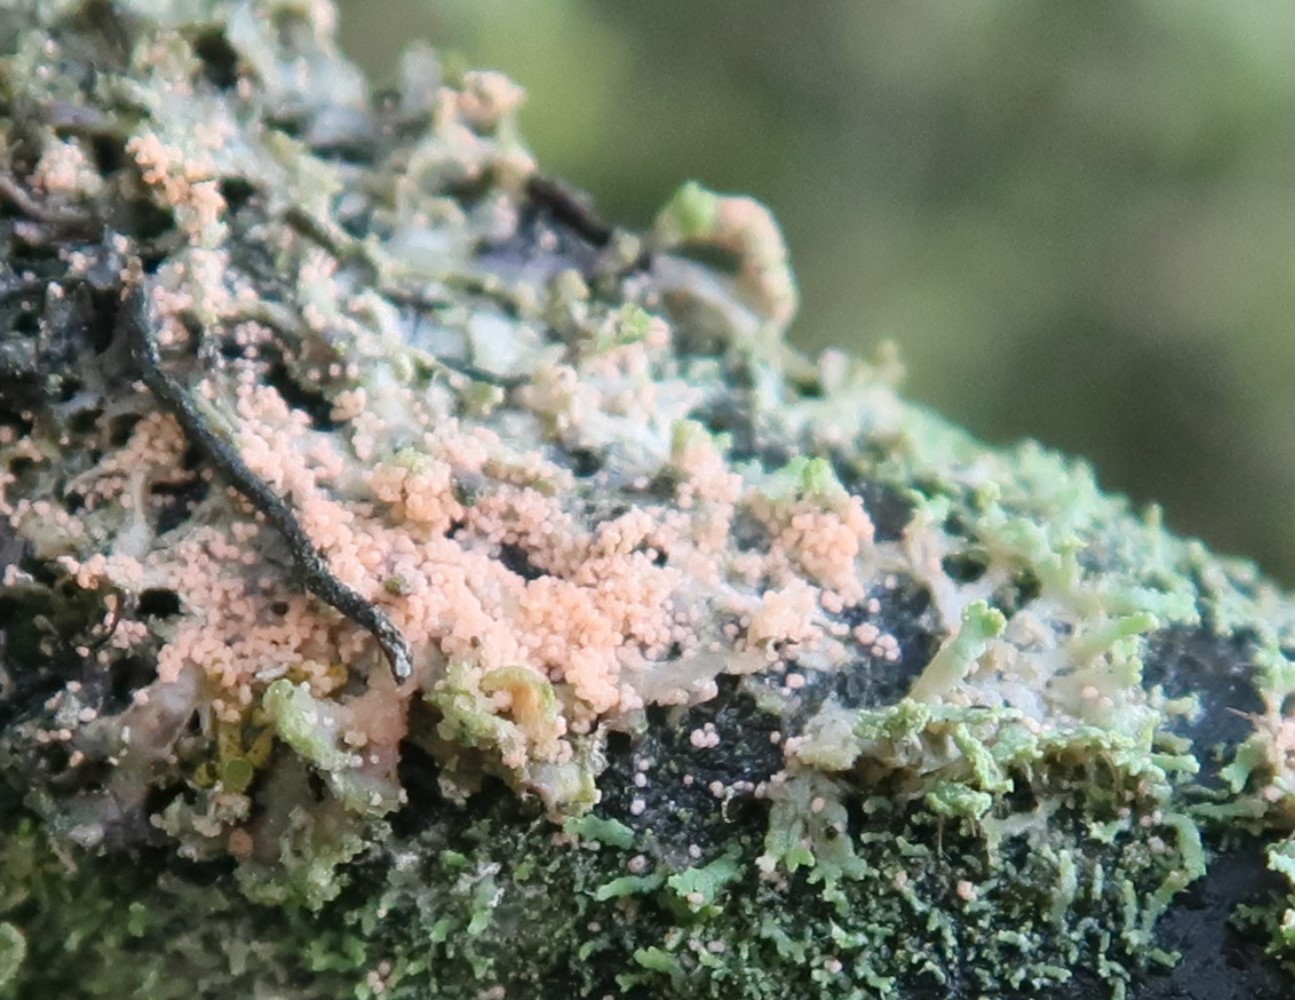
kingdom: Fungi
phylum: Basidiomycota
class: Agaricomycetes
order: Corticiales
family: Corticiaceae
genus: Erythricium
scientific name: Erythricium aurantiacum
